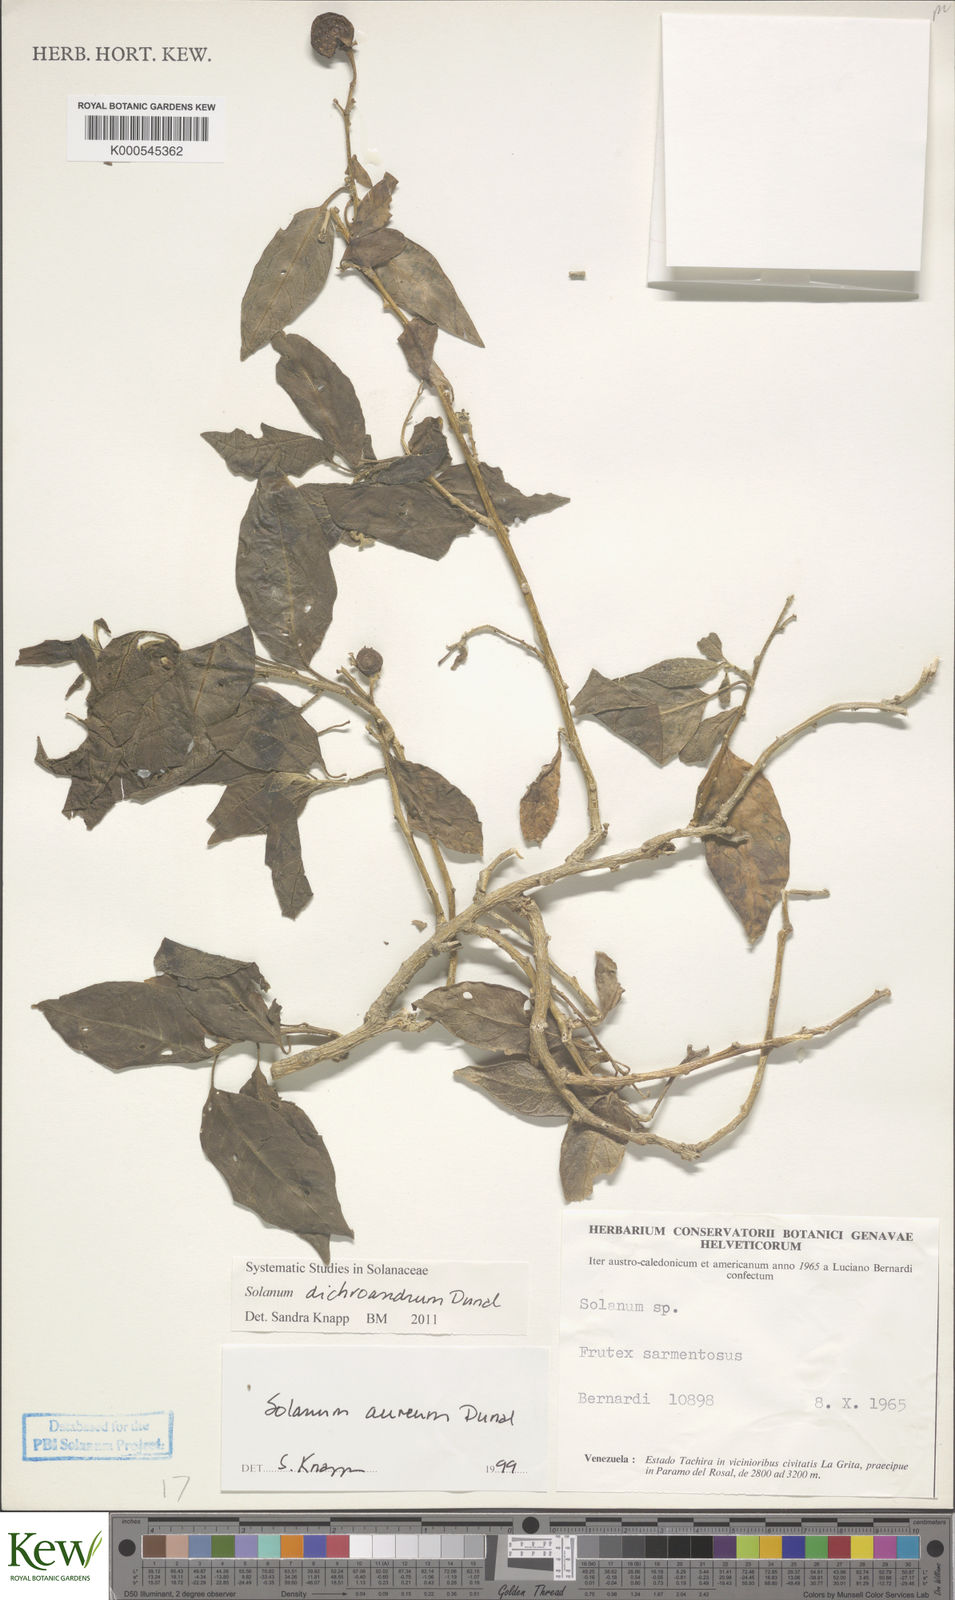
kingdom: Plantae
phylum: Tracheophyta
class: Magnoliopsida
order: Solanales
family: Solanaceae
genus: Solanum
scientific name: Solanum dichroandrum
